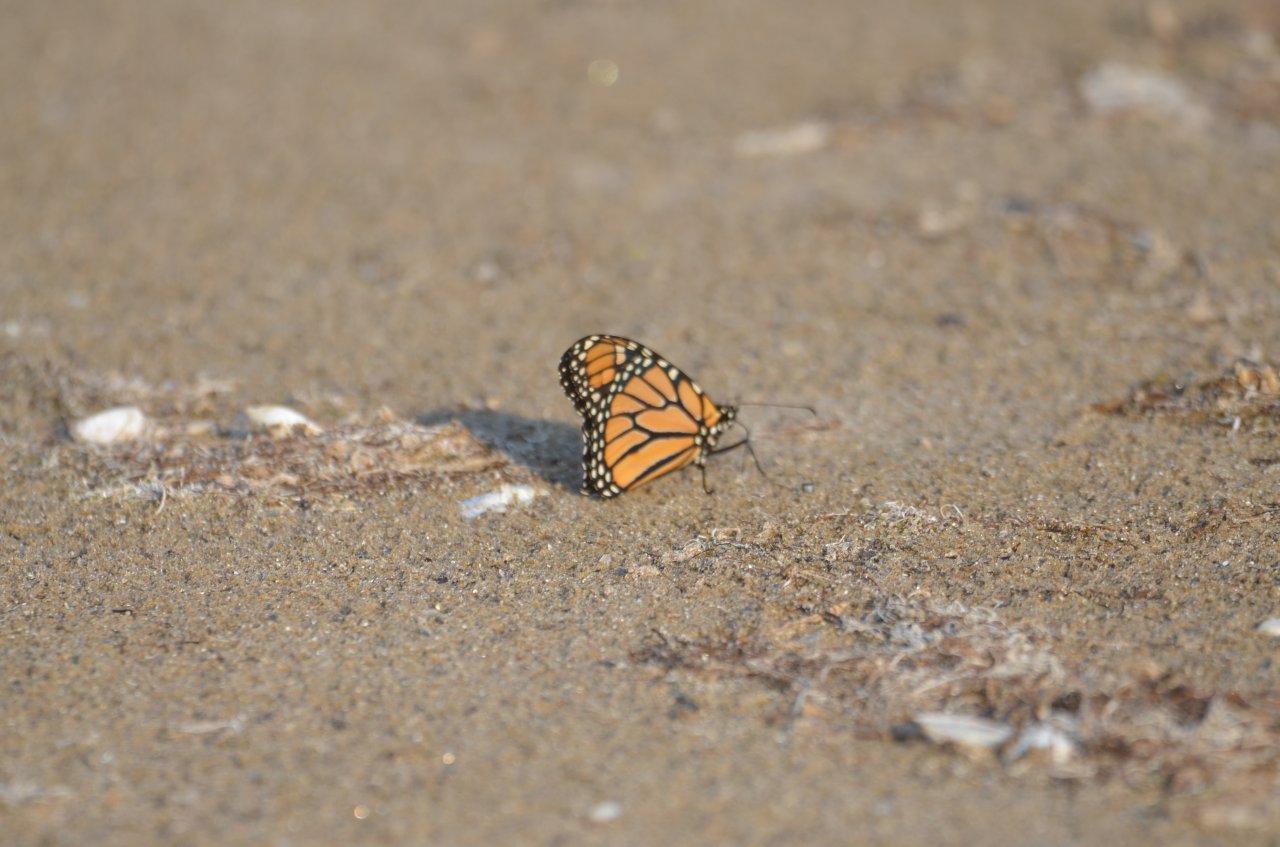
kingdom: Animalia
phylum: Arthropoda
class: Insecta
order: Lepidoptera
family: Nymphalidae
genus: Danaus
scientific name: Danaus plexippus
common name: Monarch
